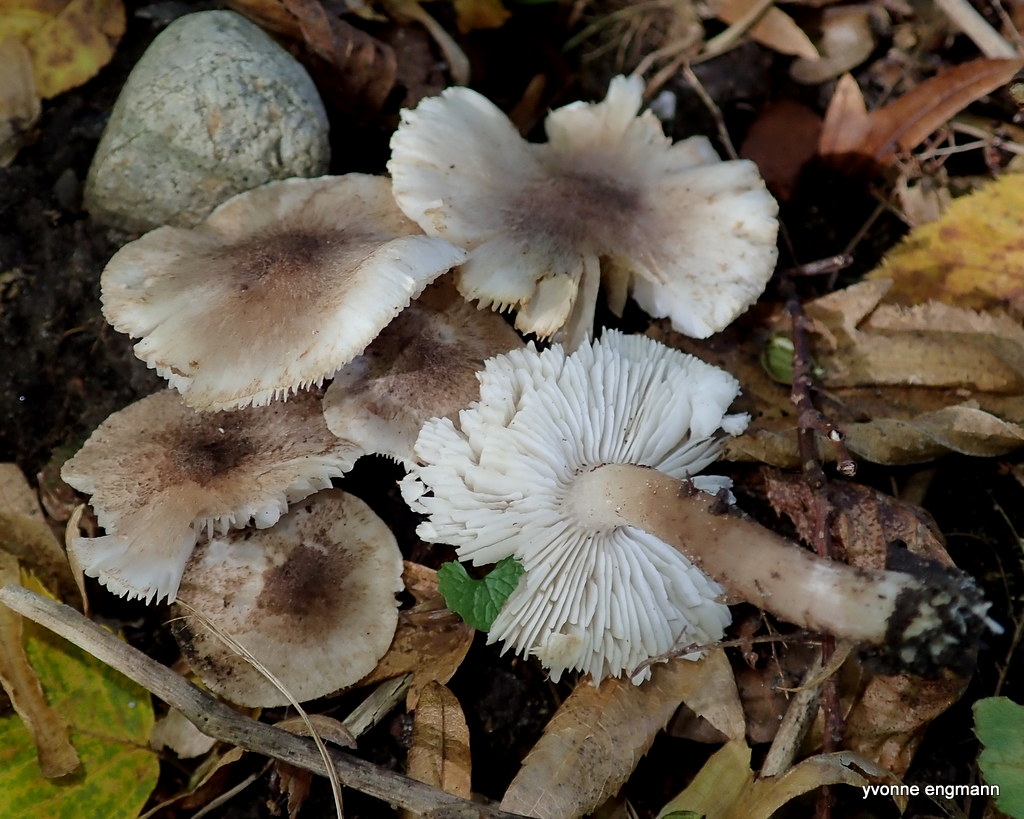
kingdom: Fungi
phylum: Basidiomycota
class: Agaricomycetes
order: Agaricales
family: Tricholomataceae
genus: Tricholoma
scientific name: Tricholoma scalpturatum
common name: gulplettet ridderhat
